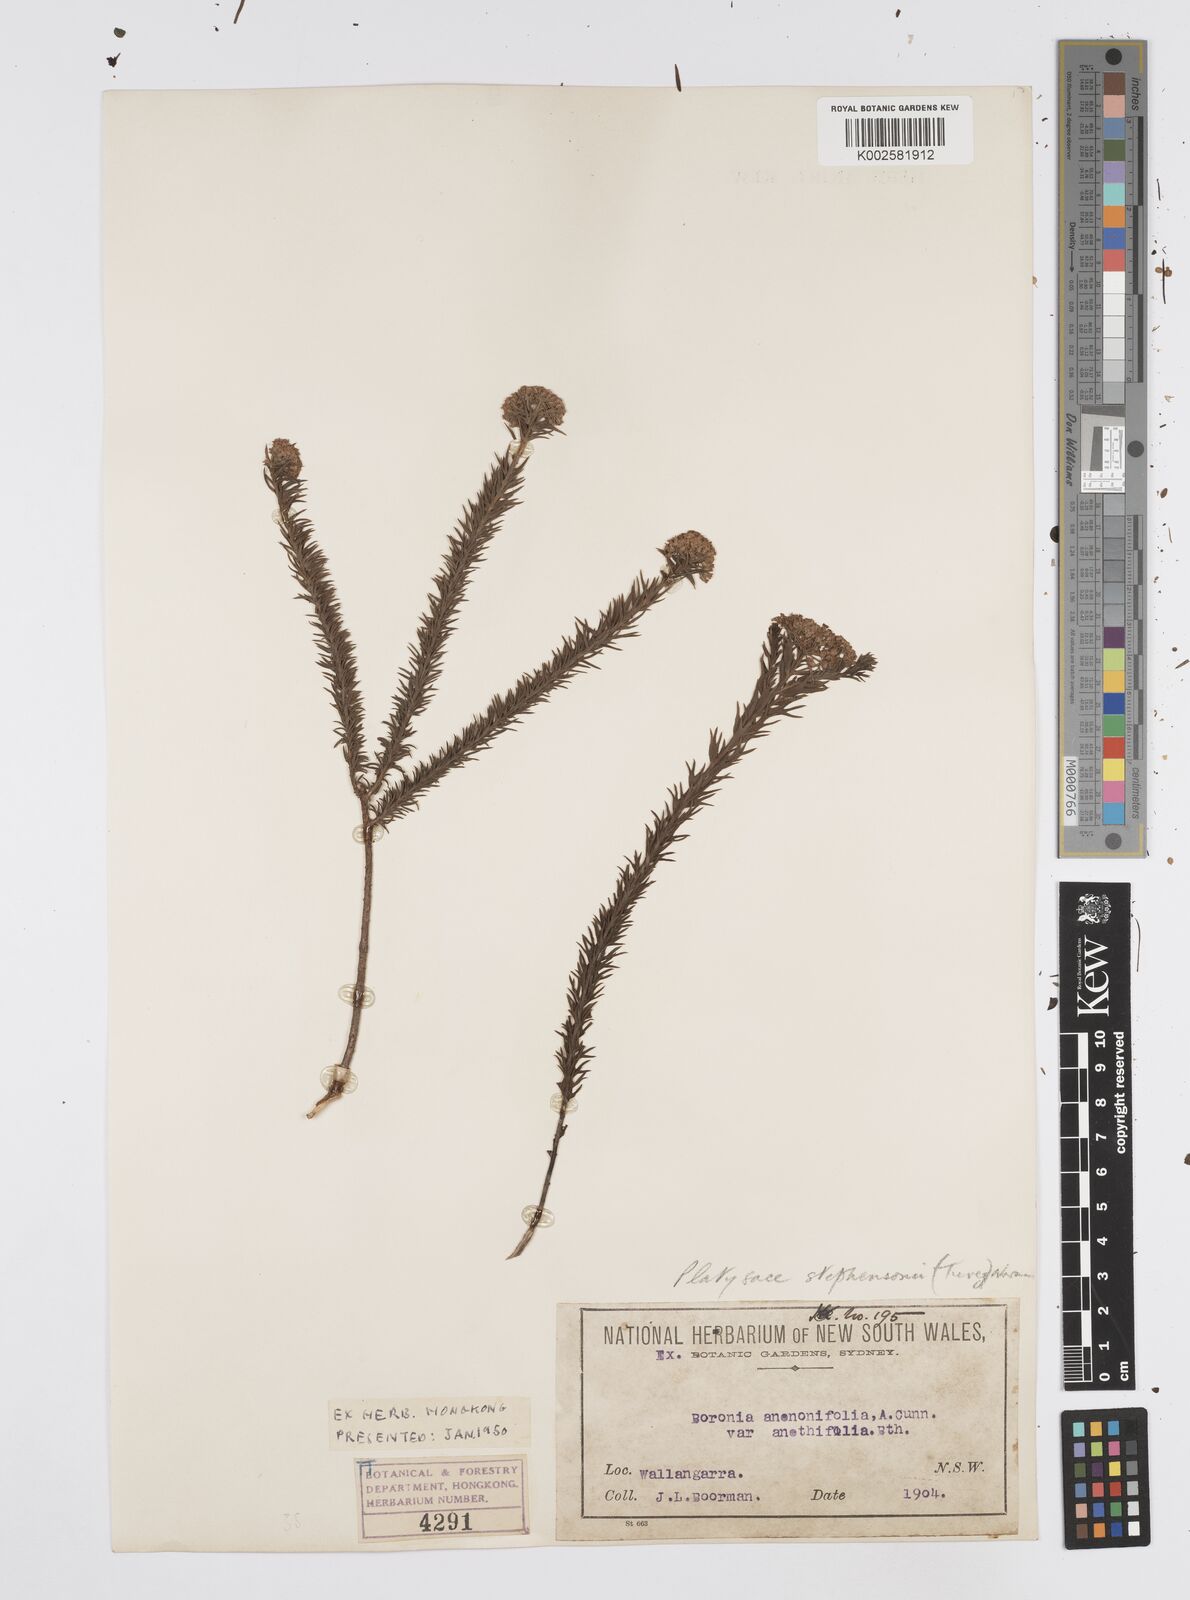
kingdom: Plantae
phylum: Tracheophyta
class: Magnoliopsida
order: Apiales
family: Apiaceae
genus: Platysace
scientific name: Platysace stephensonii
